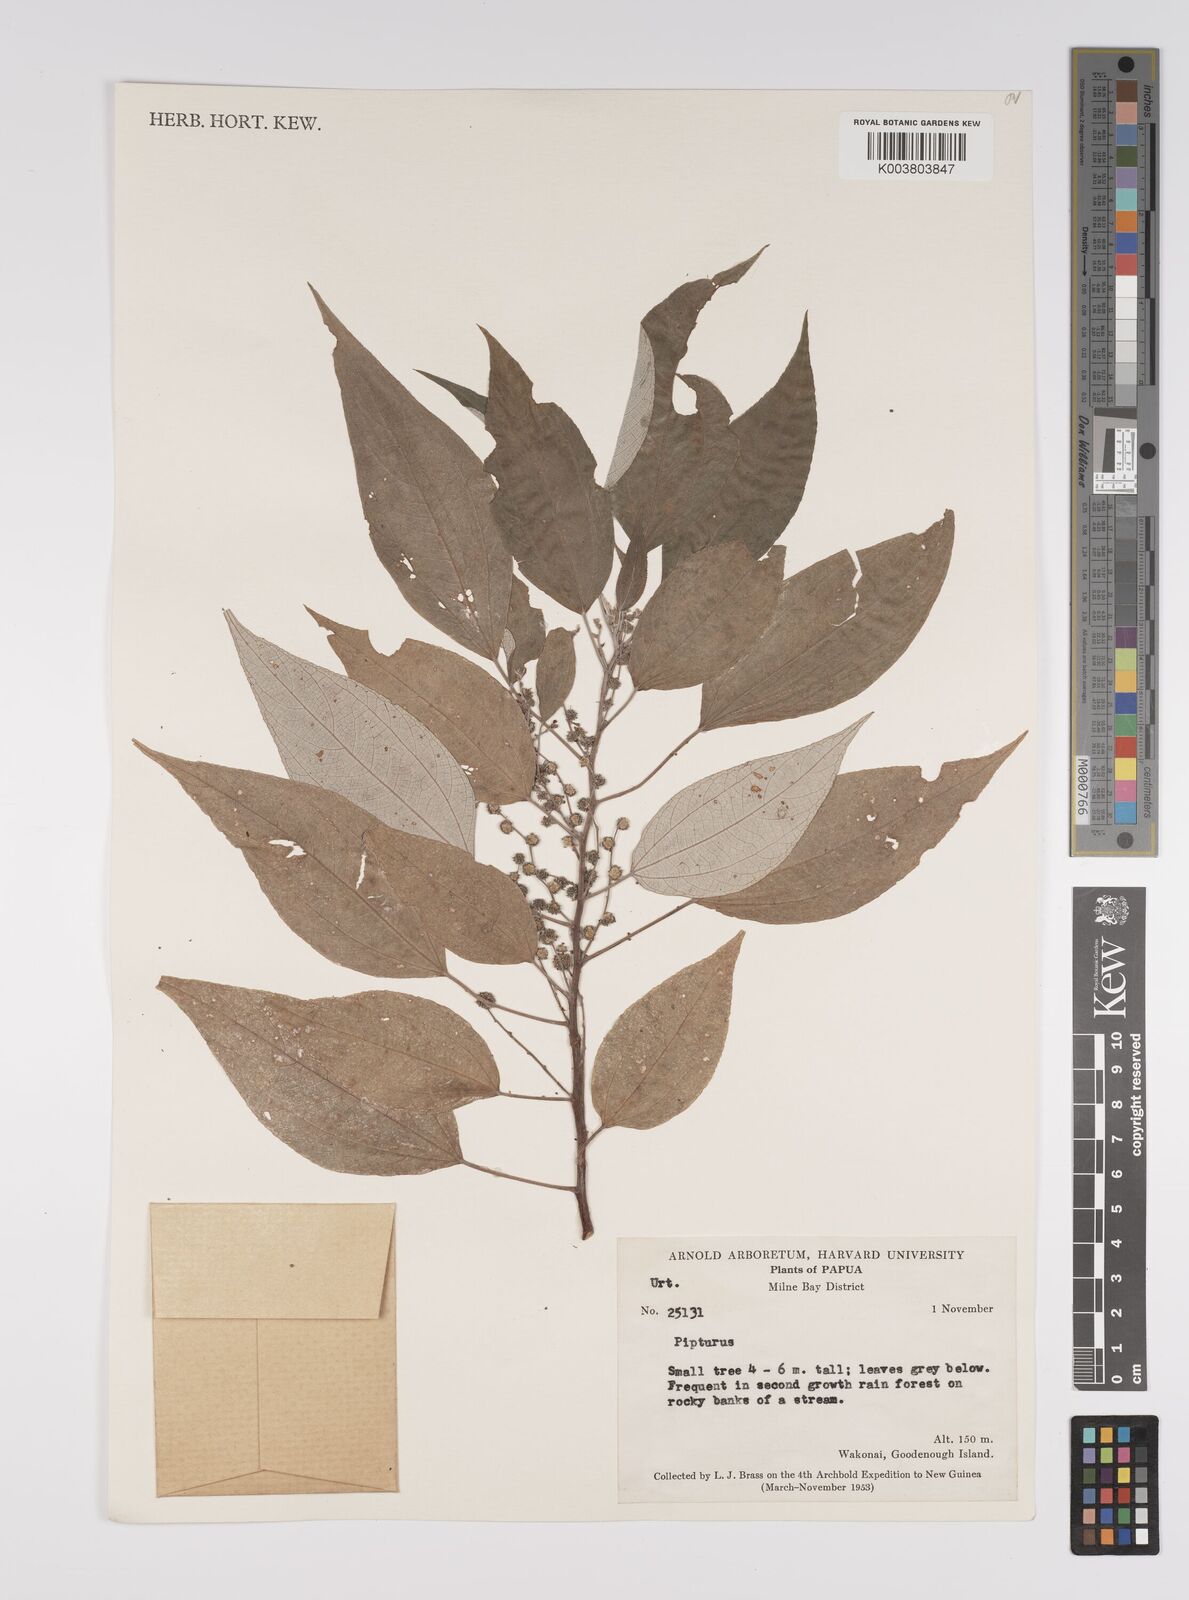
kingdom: Plantae
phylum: Tracheophyta
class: Magnoliopsida
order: Rosales
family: Urticaceae
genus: Pipturus
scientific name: Pipturus argenteus
